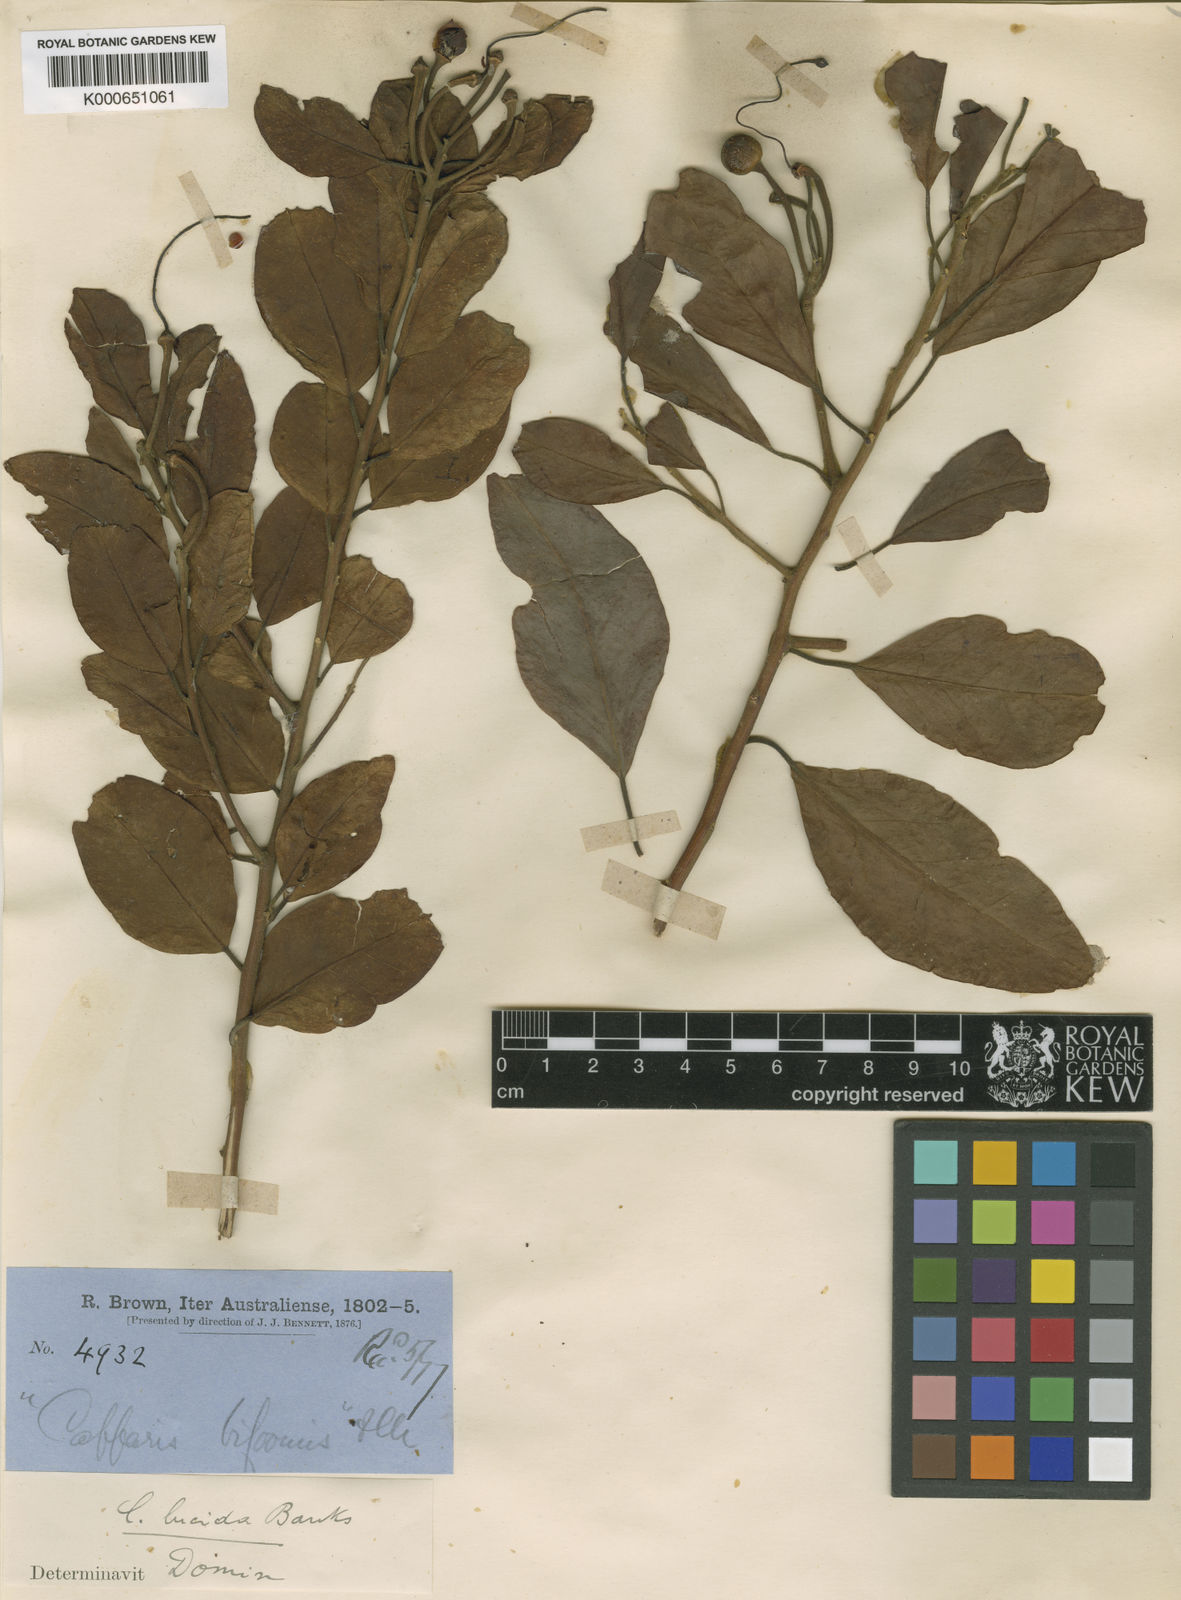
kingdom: Plantae
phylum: Tracheophyta
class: Magnoliopsida
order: Brassicales
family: Capparaceae
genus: Capparis
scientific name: Capparis
